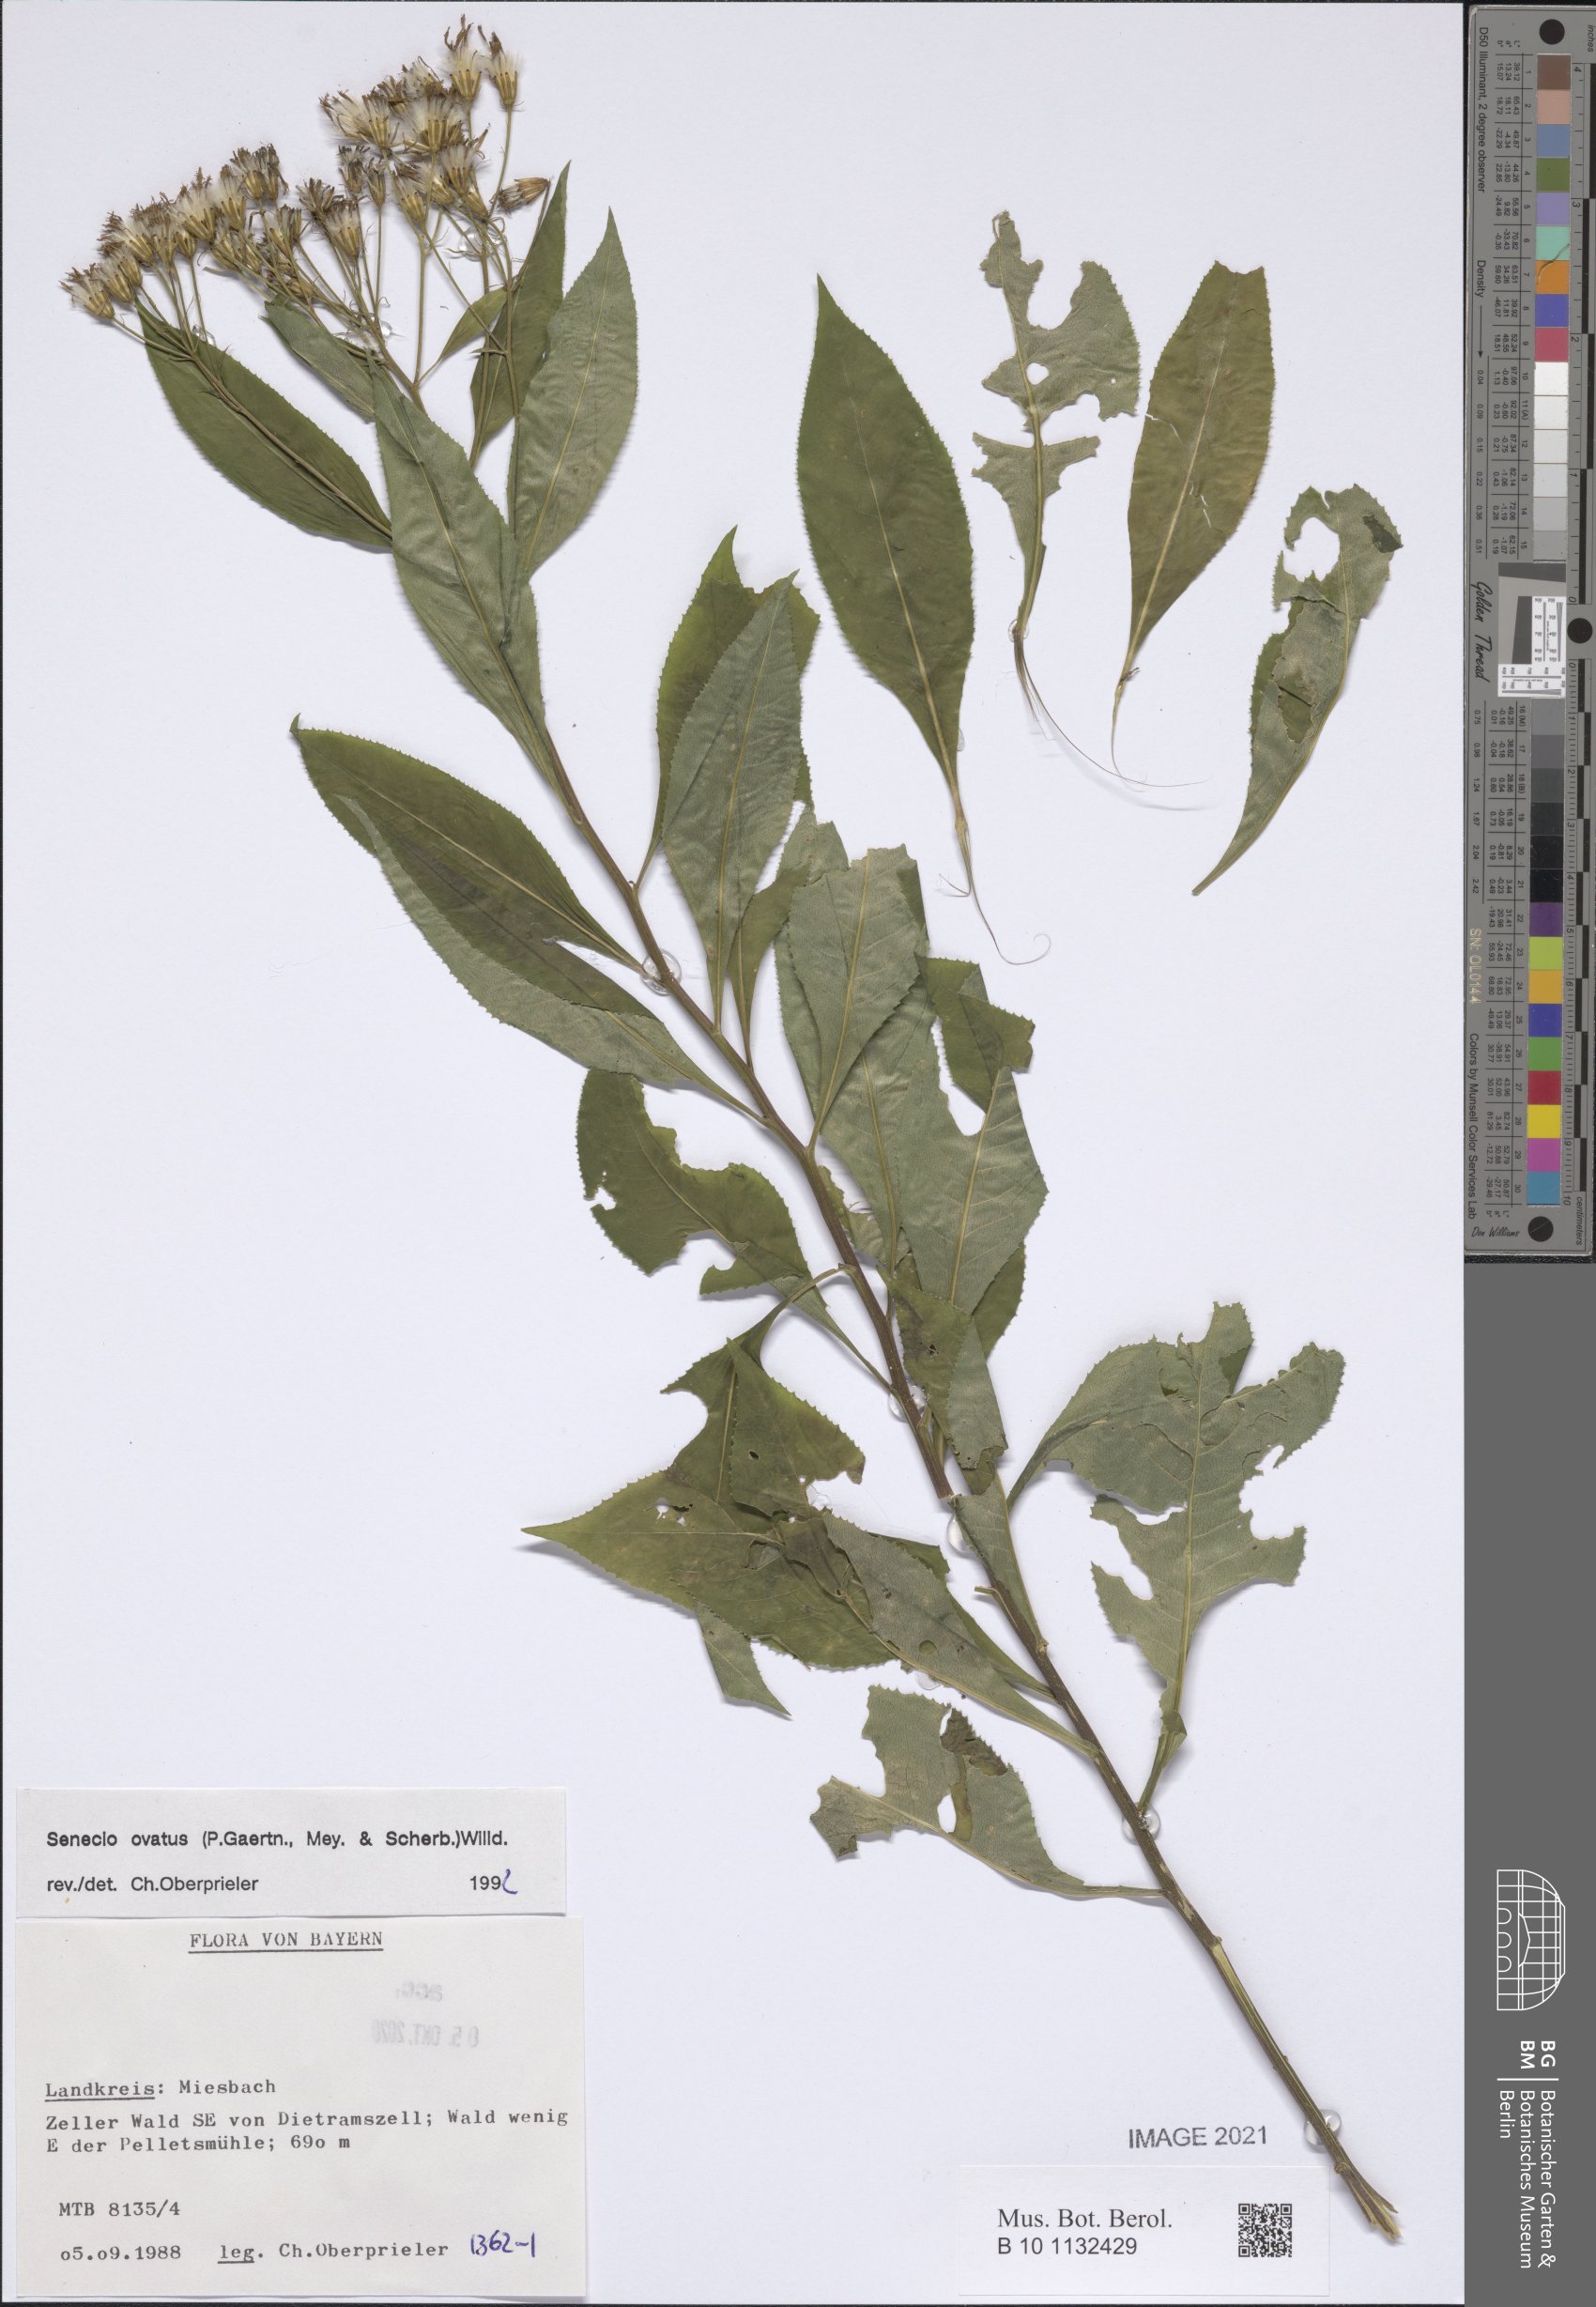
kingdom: Plantae
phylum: Tracheophyta
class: Magnoliopsida
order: Asterales
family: Asteraceae
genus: Senecio
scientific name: Senecio ovatus
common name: Wood ragwort
